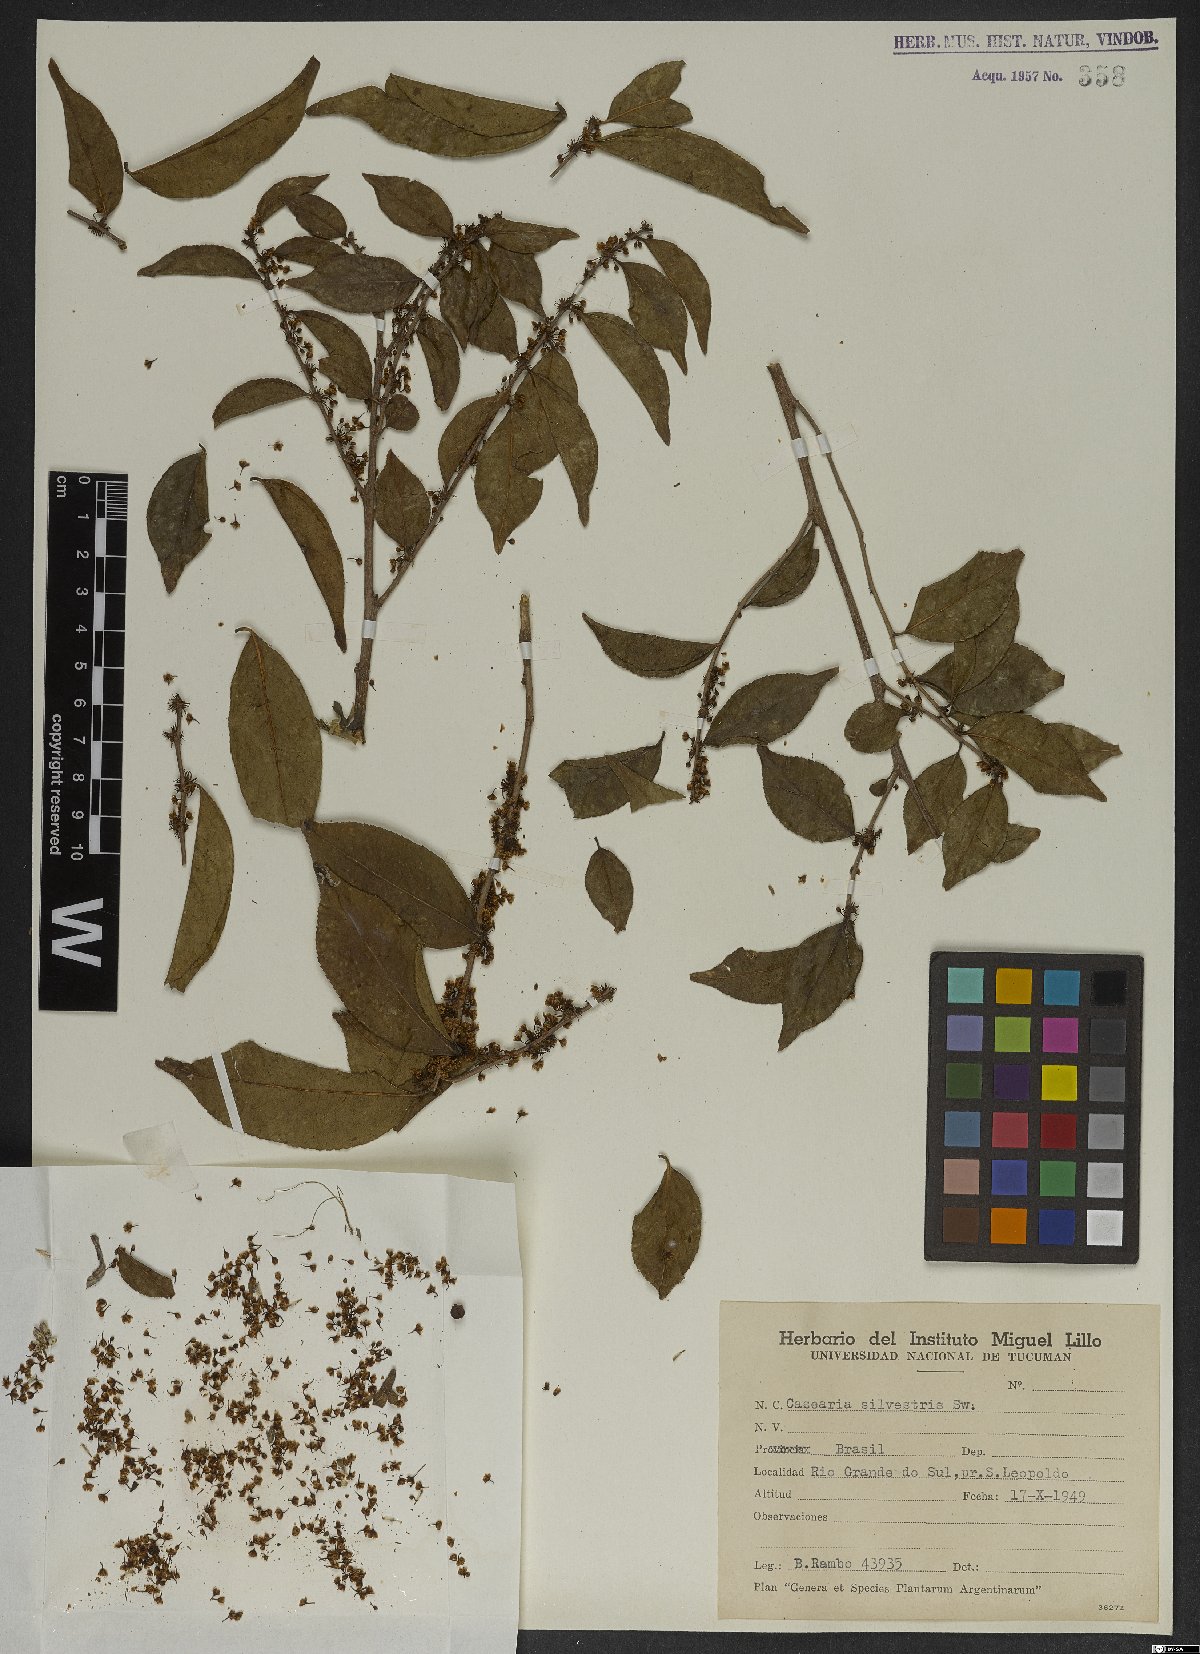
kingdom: Plantae
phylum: Tracheophyta
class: Magnoliopsida
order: Malpighiales
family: Salicaceae
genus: Casearia
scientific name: Casearia sylvestris
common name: Wild sage
